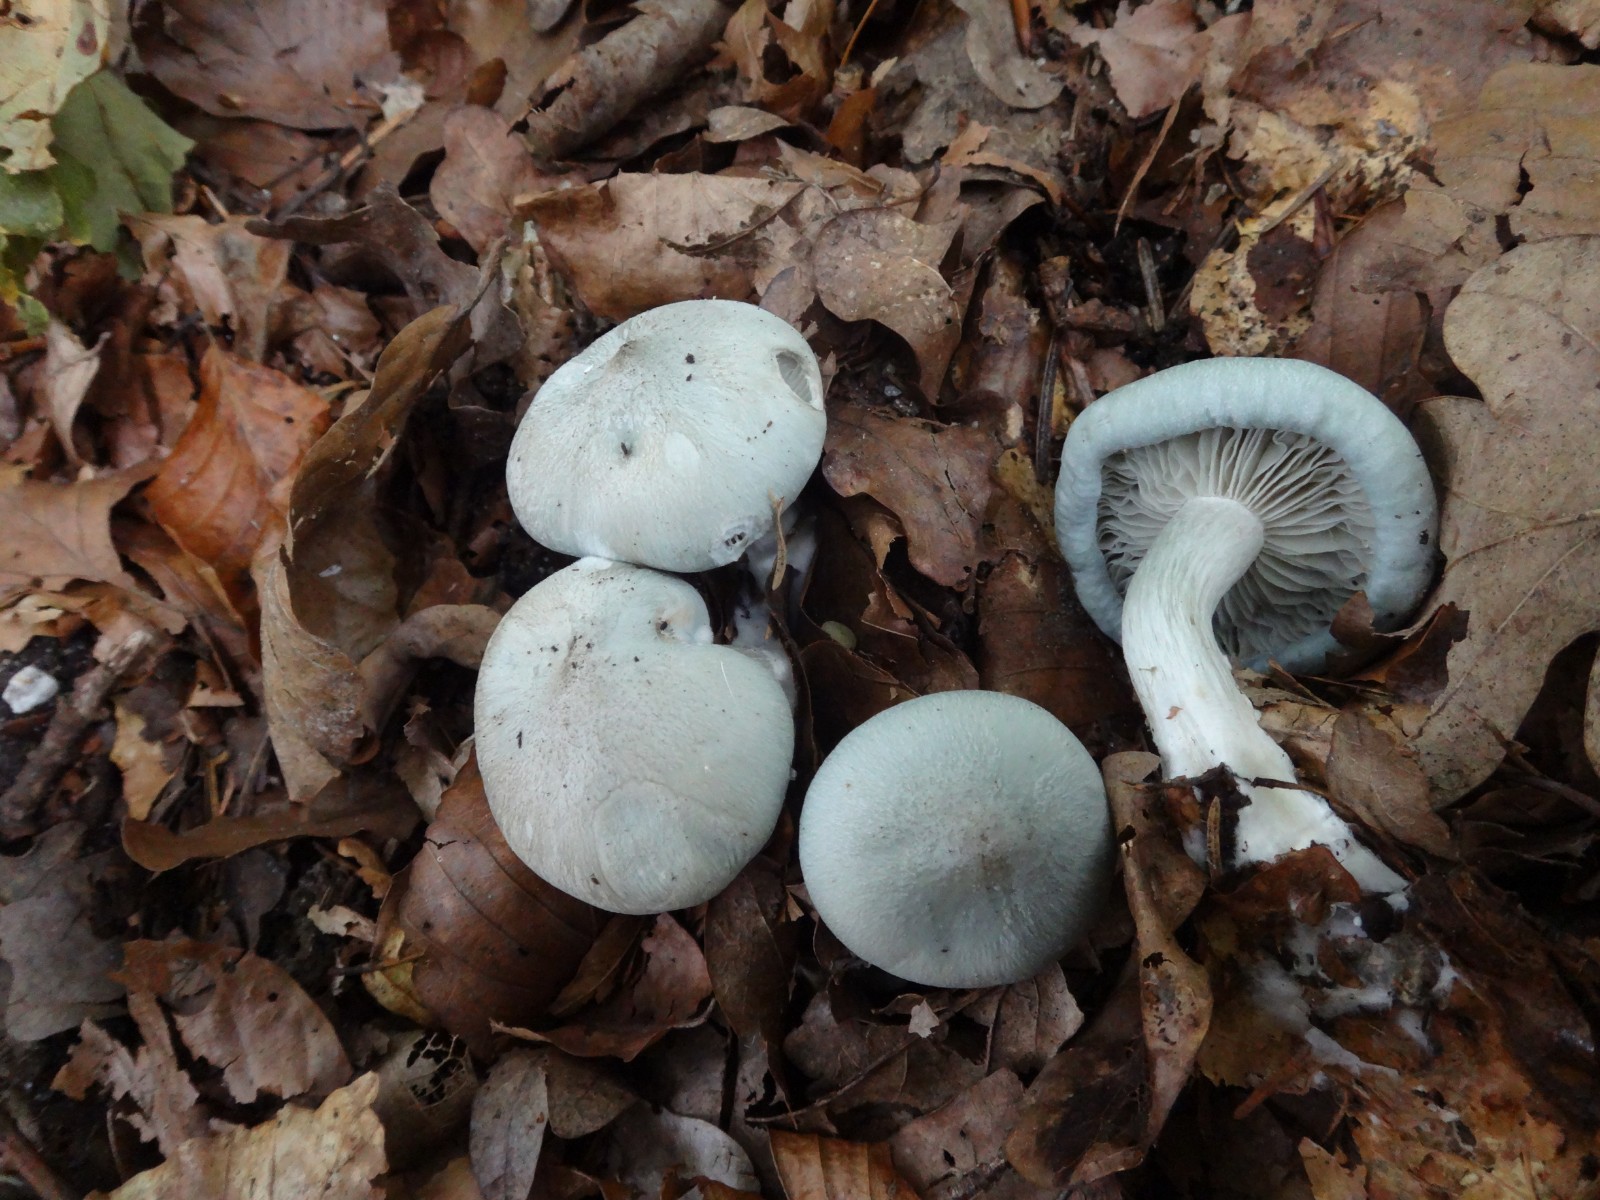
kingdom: Fungi
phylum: Basidiomycota
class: Agaricomycetes
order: Agaricales
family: Tricholomataceae
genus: Clitocybe
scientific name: Clitocybe odora
